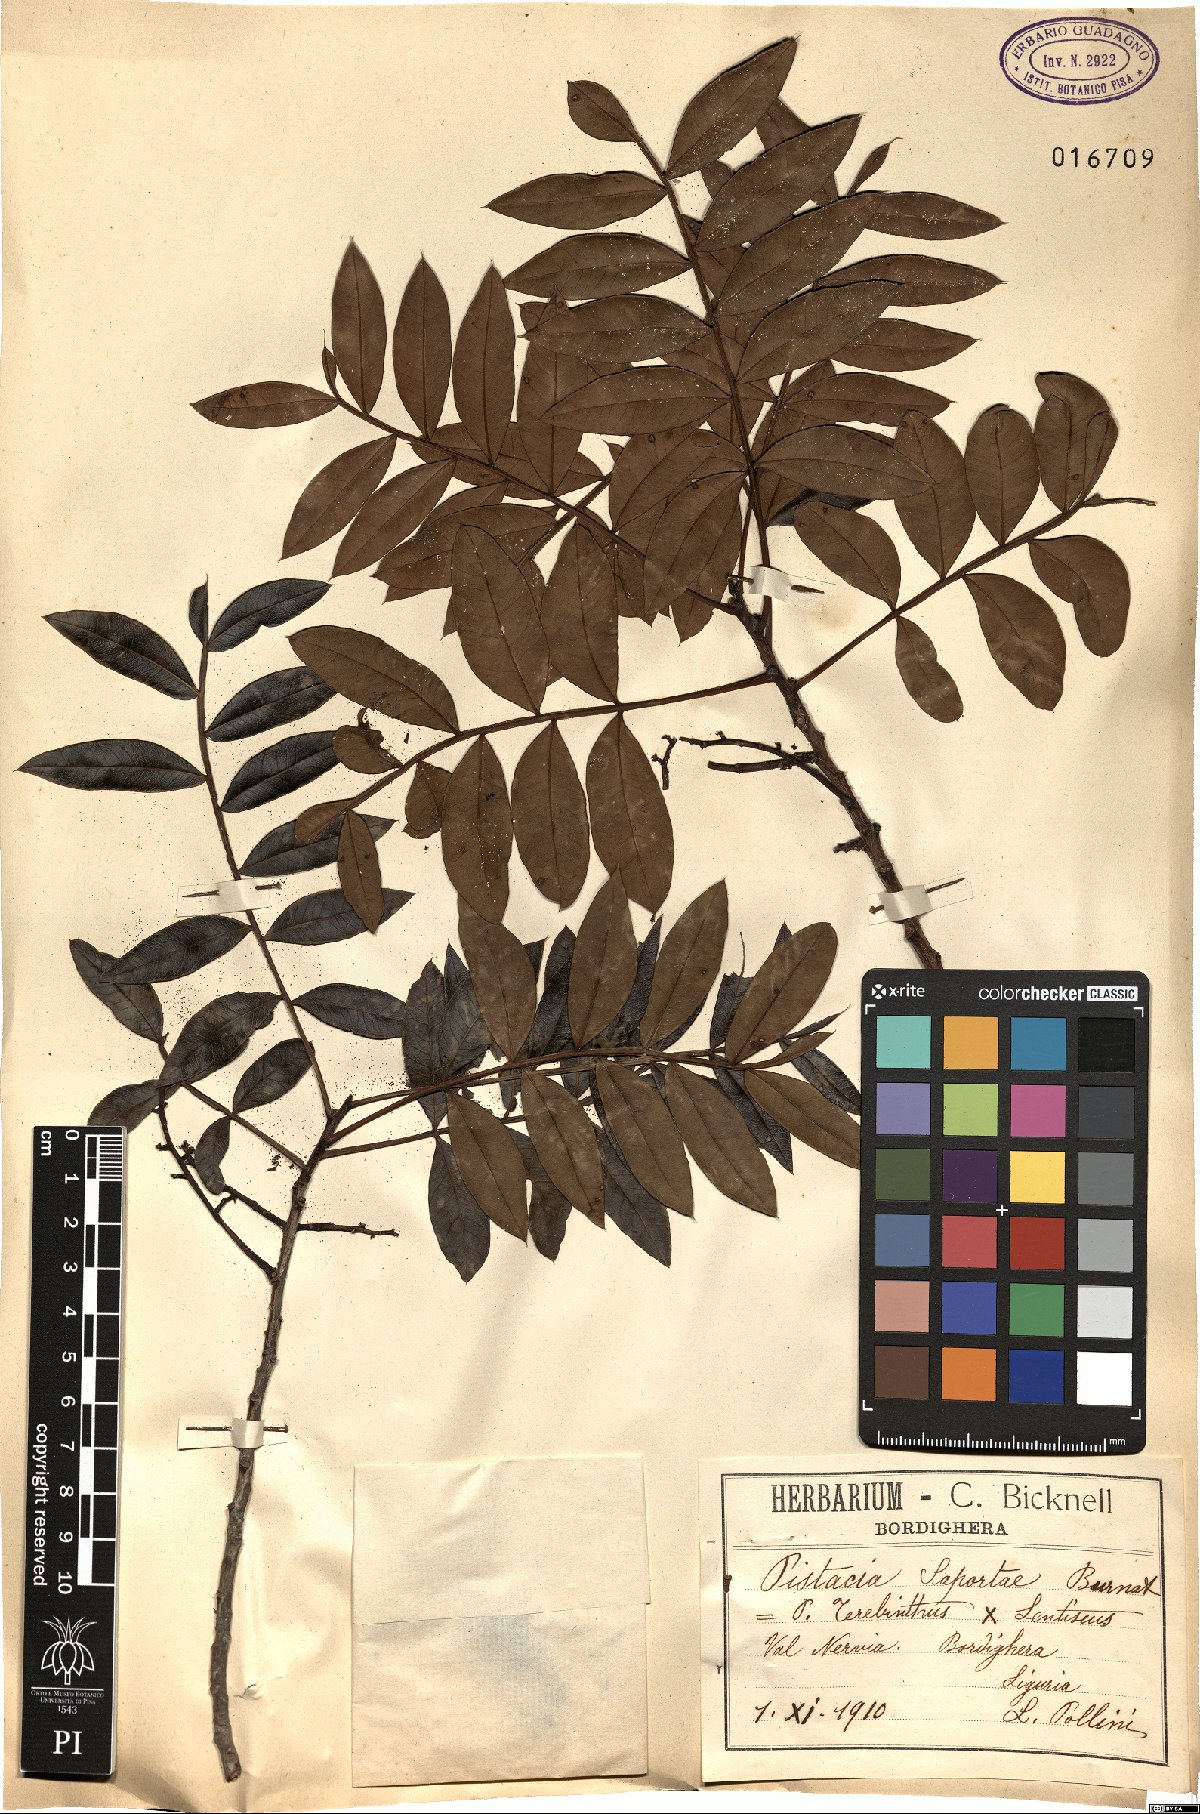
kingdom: Plantae
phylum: Tracheophyta
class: Magnoliopsida
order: Sapindales
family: Anacardiaceae
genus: Pistacia
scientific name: Pistacia saportae
